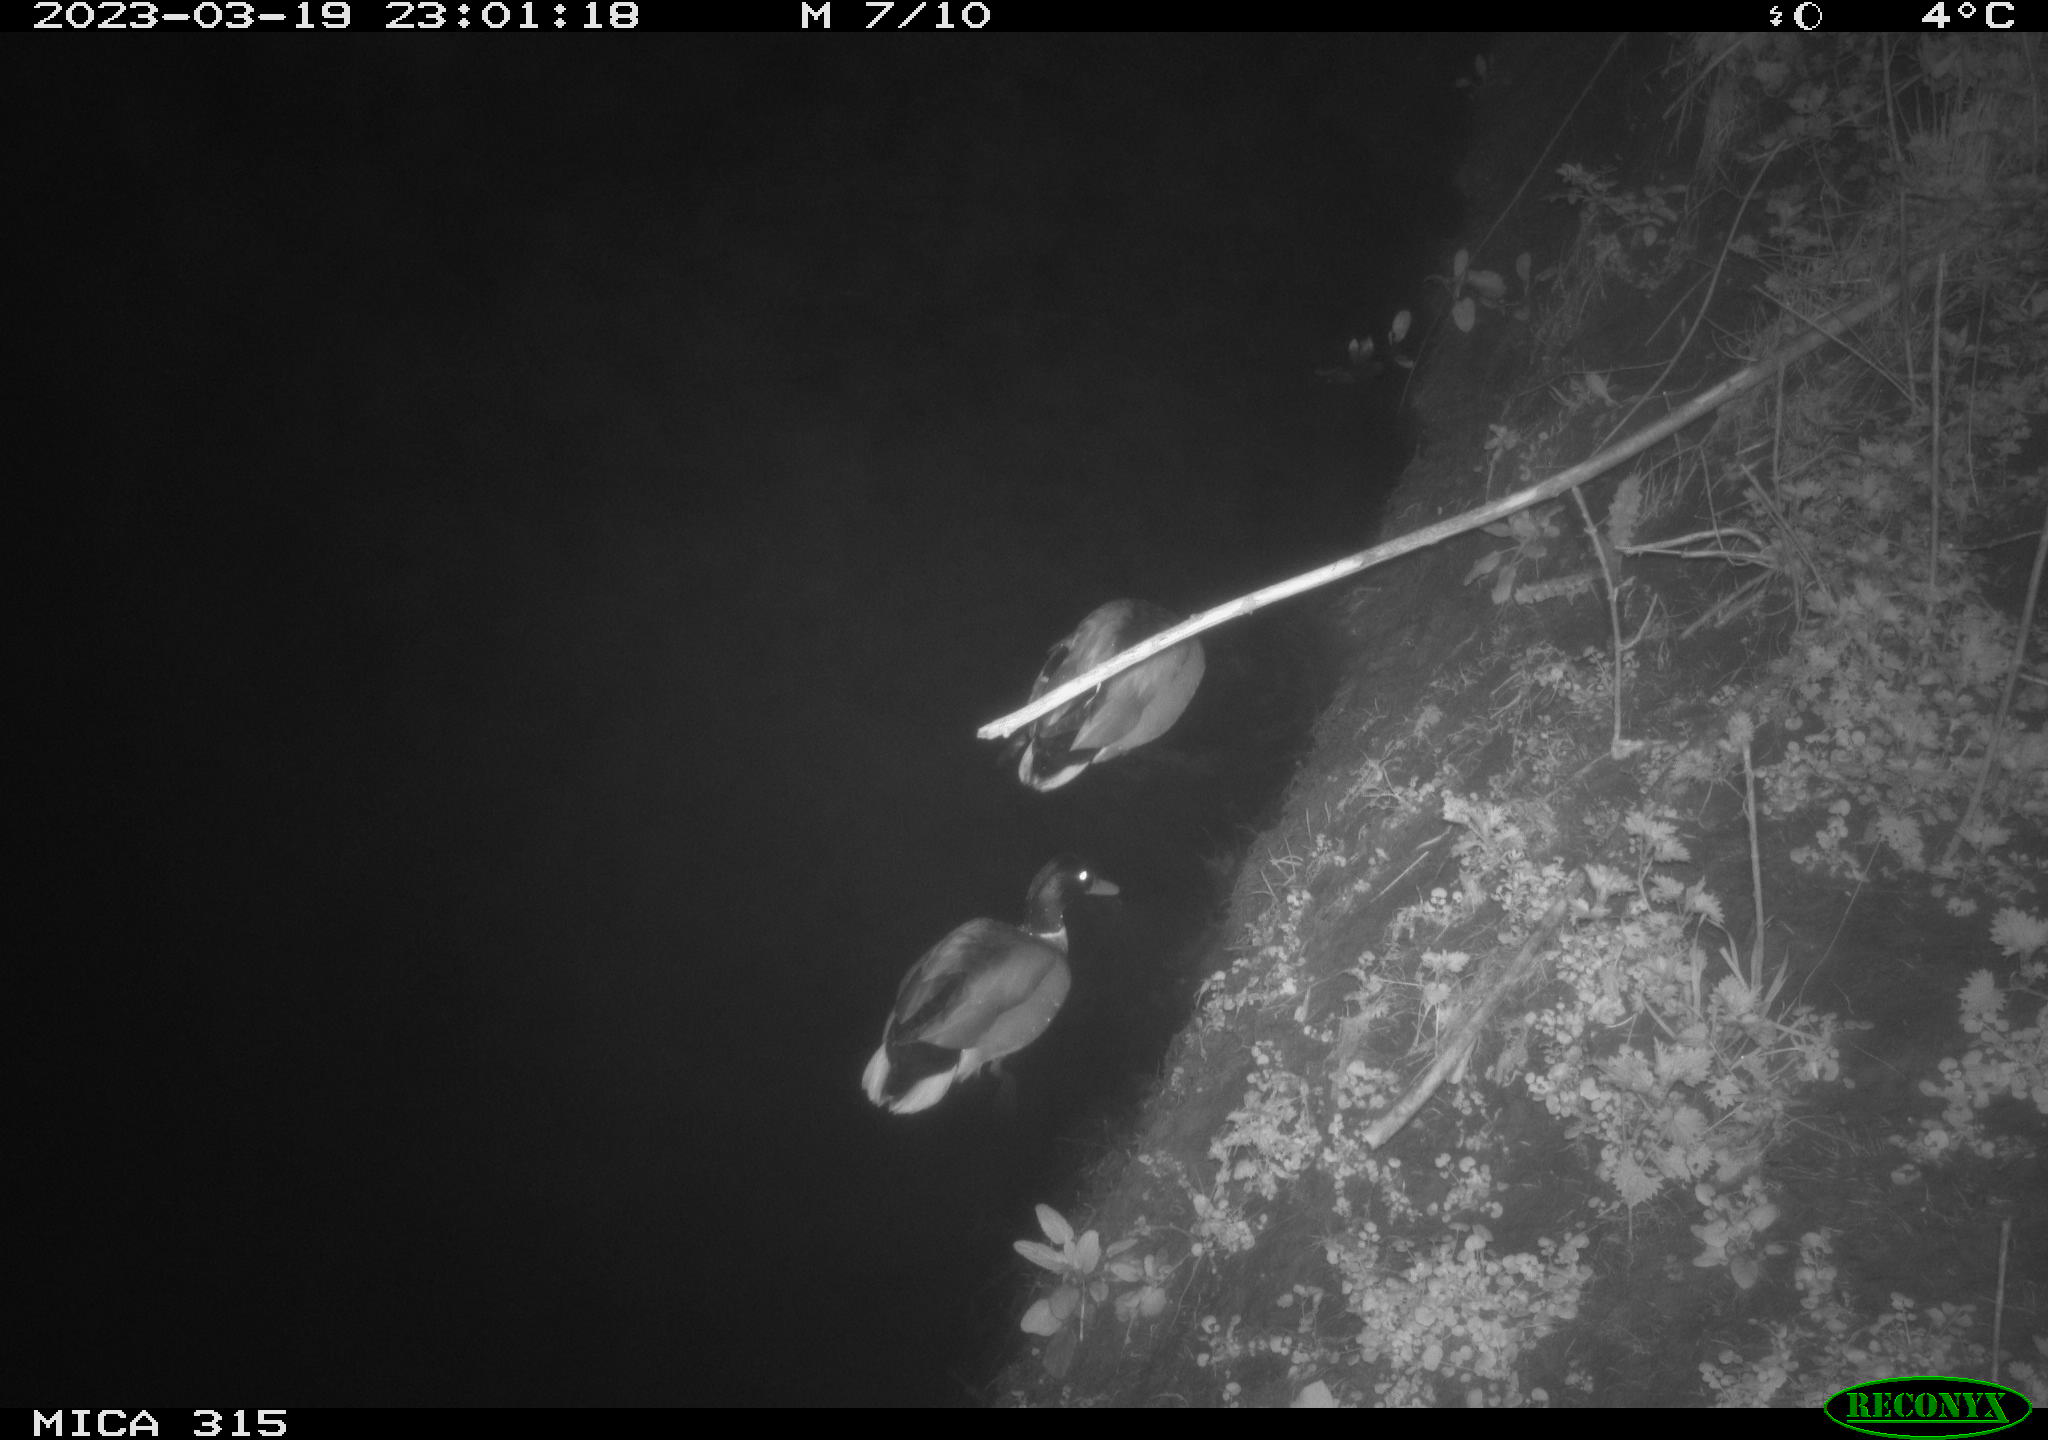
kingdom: Animalia
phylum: Chordata
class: Aves
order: Anseriformes
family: Anatidae
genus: Anas
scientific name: Anas
